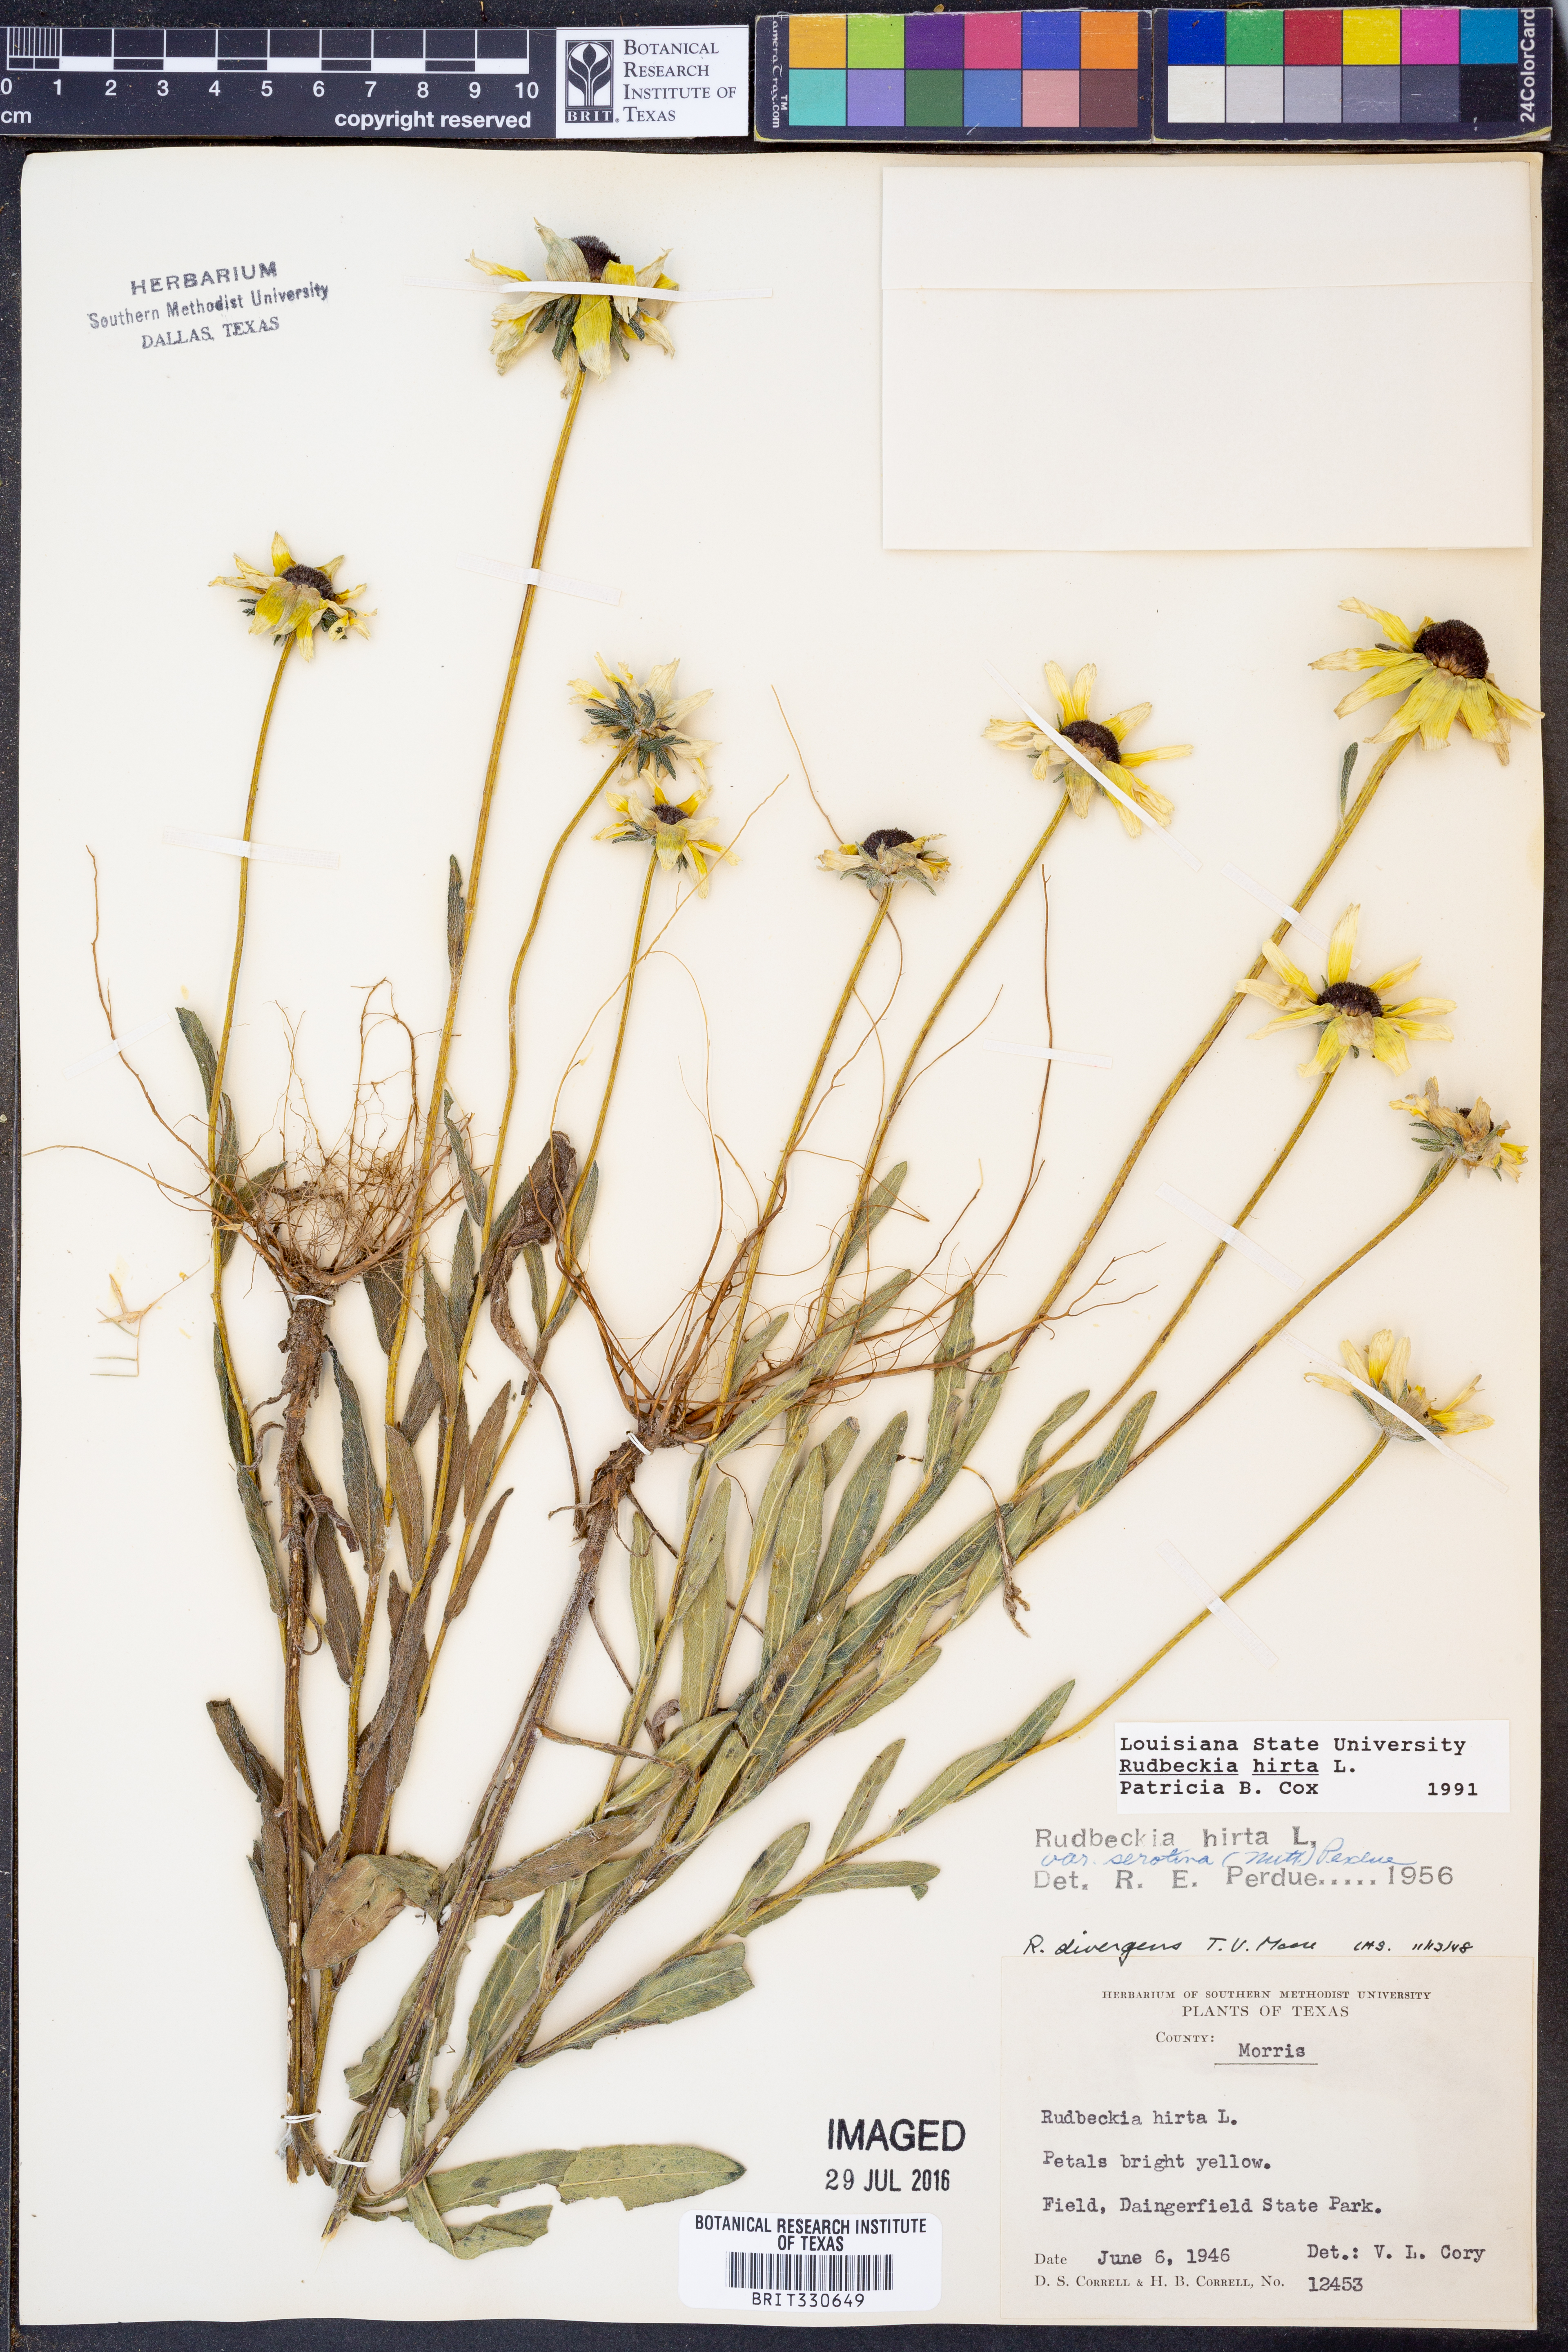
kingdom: Plantae
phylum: Tracheophyta
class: Magnoliopsida
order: Asterales
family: Asteraceae
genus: Rudbeckia
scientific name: Rudbeckia hirta
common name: Black-eyed-susan
